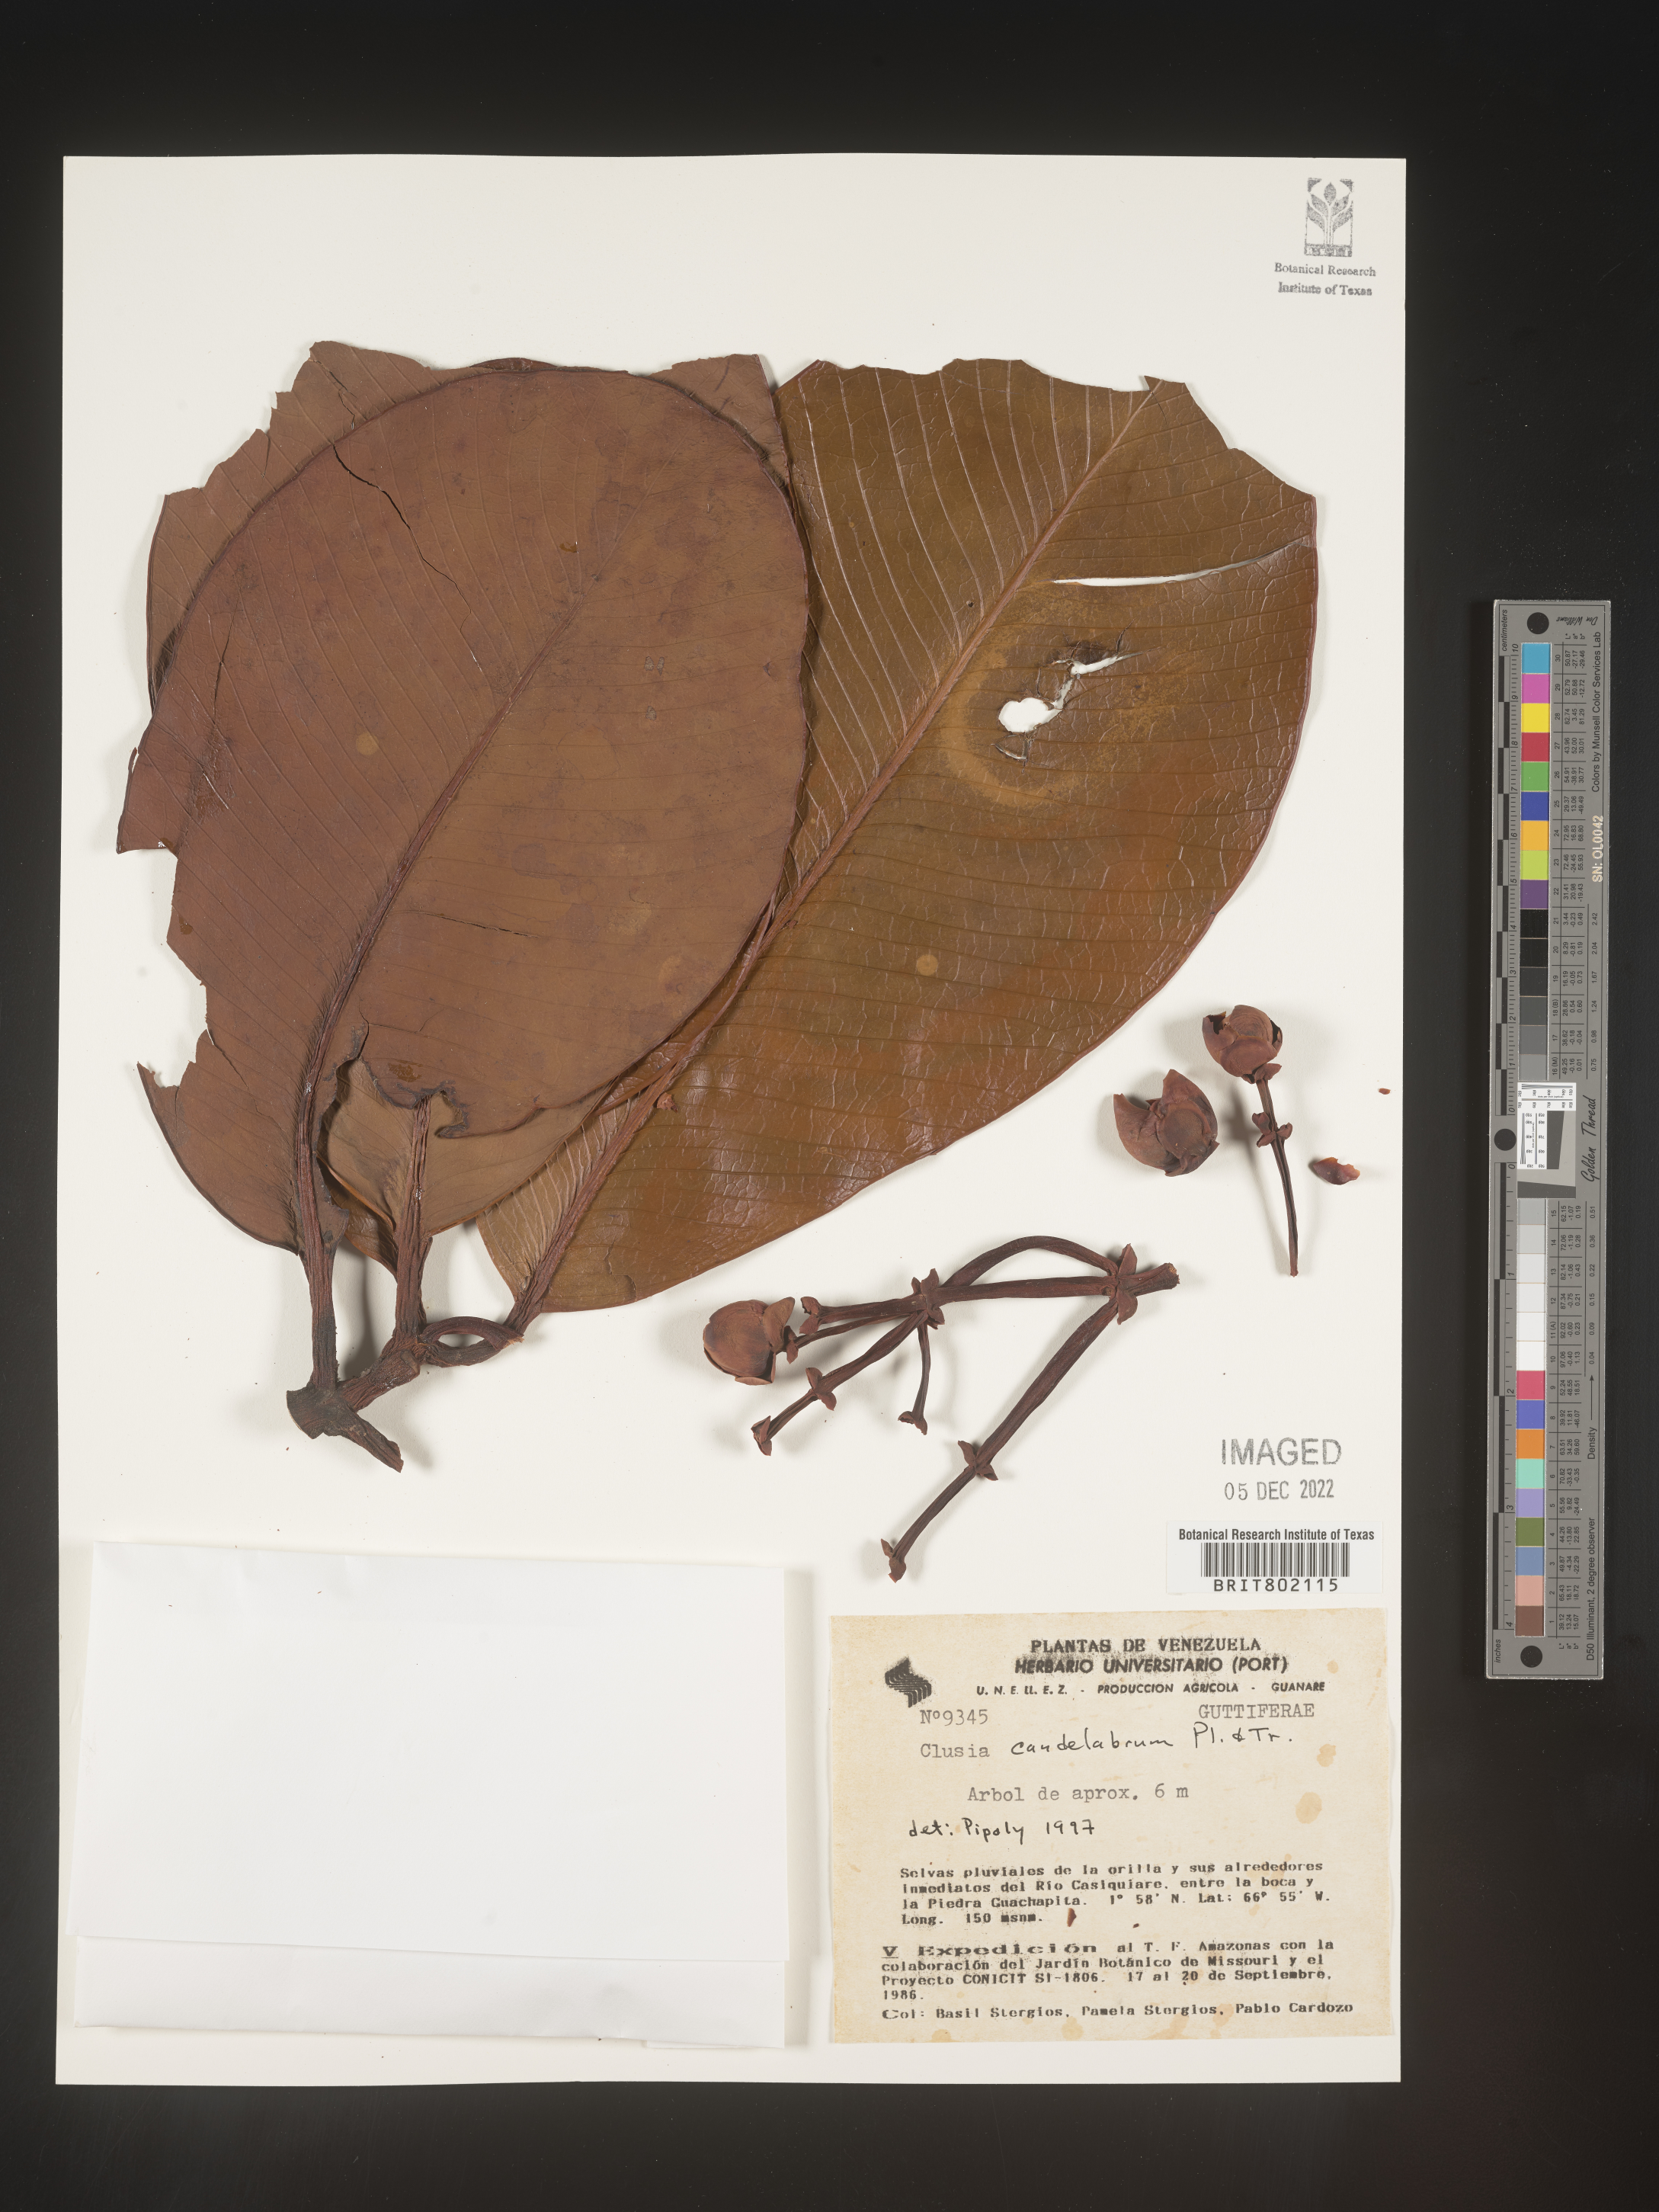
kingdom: Plantae
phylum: Tracheophyta
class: Magnoliopsida
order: Malpighiales
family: Clusiaceae
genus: Clusia
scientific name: Clusia candelabrum
